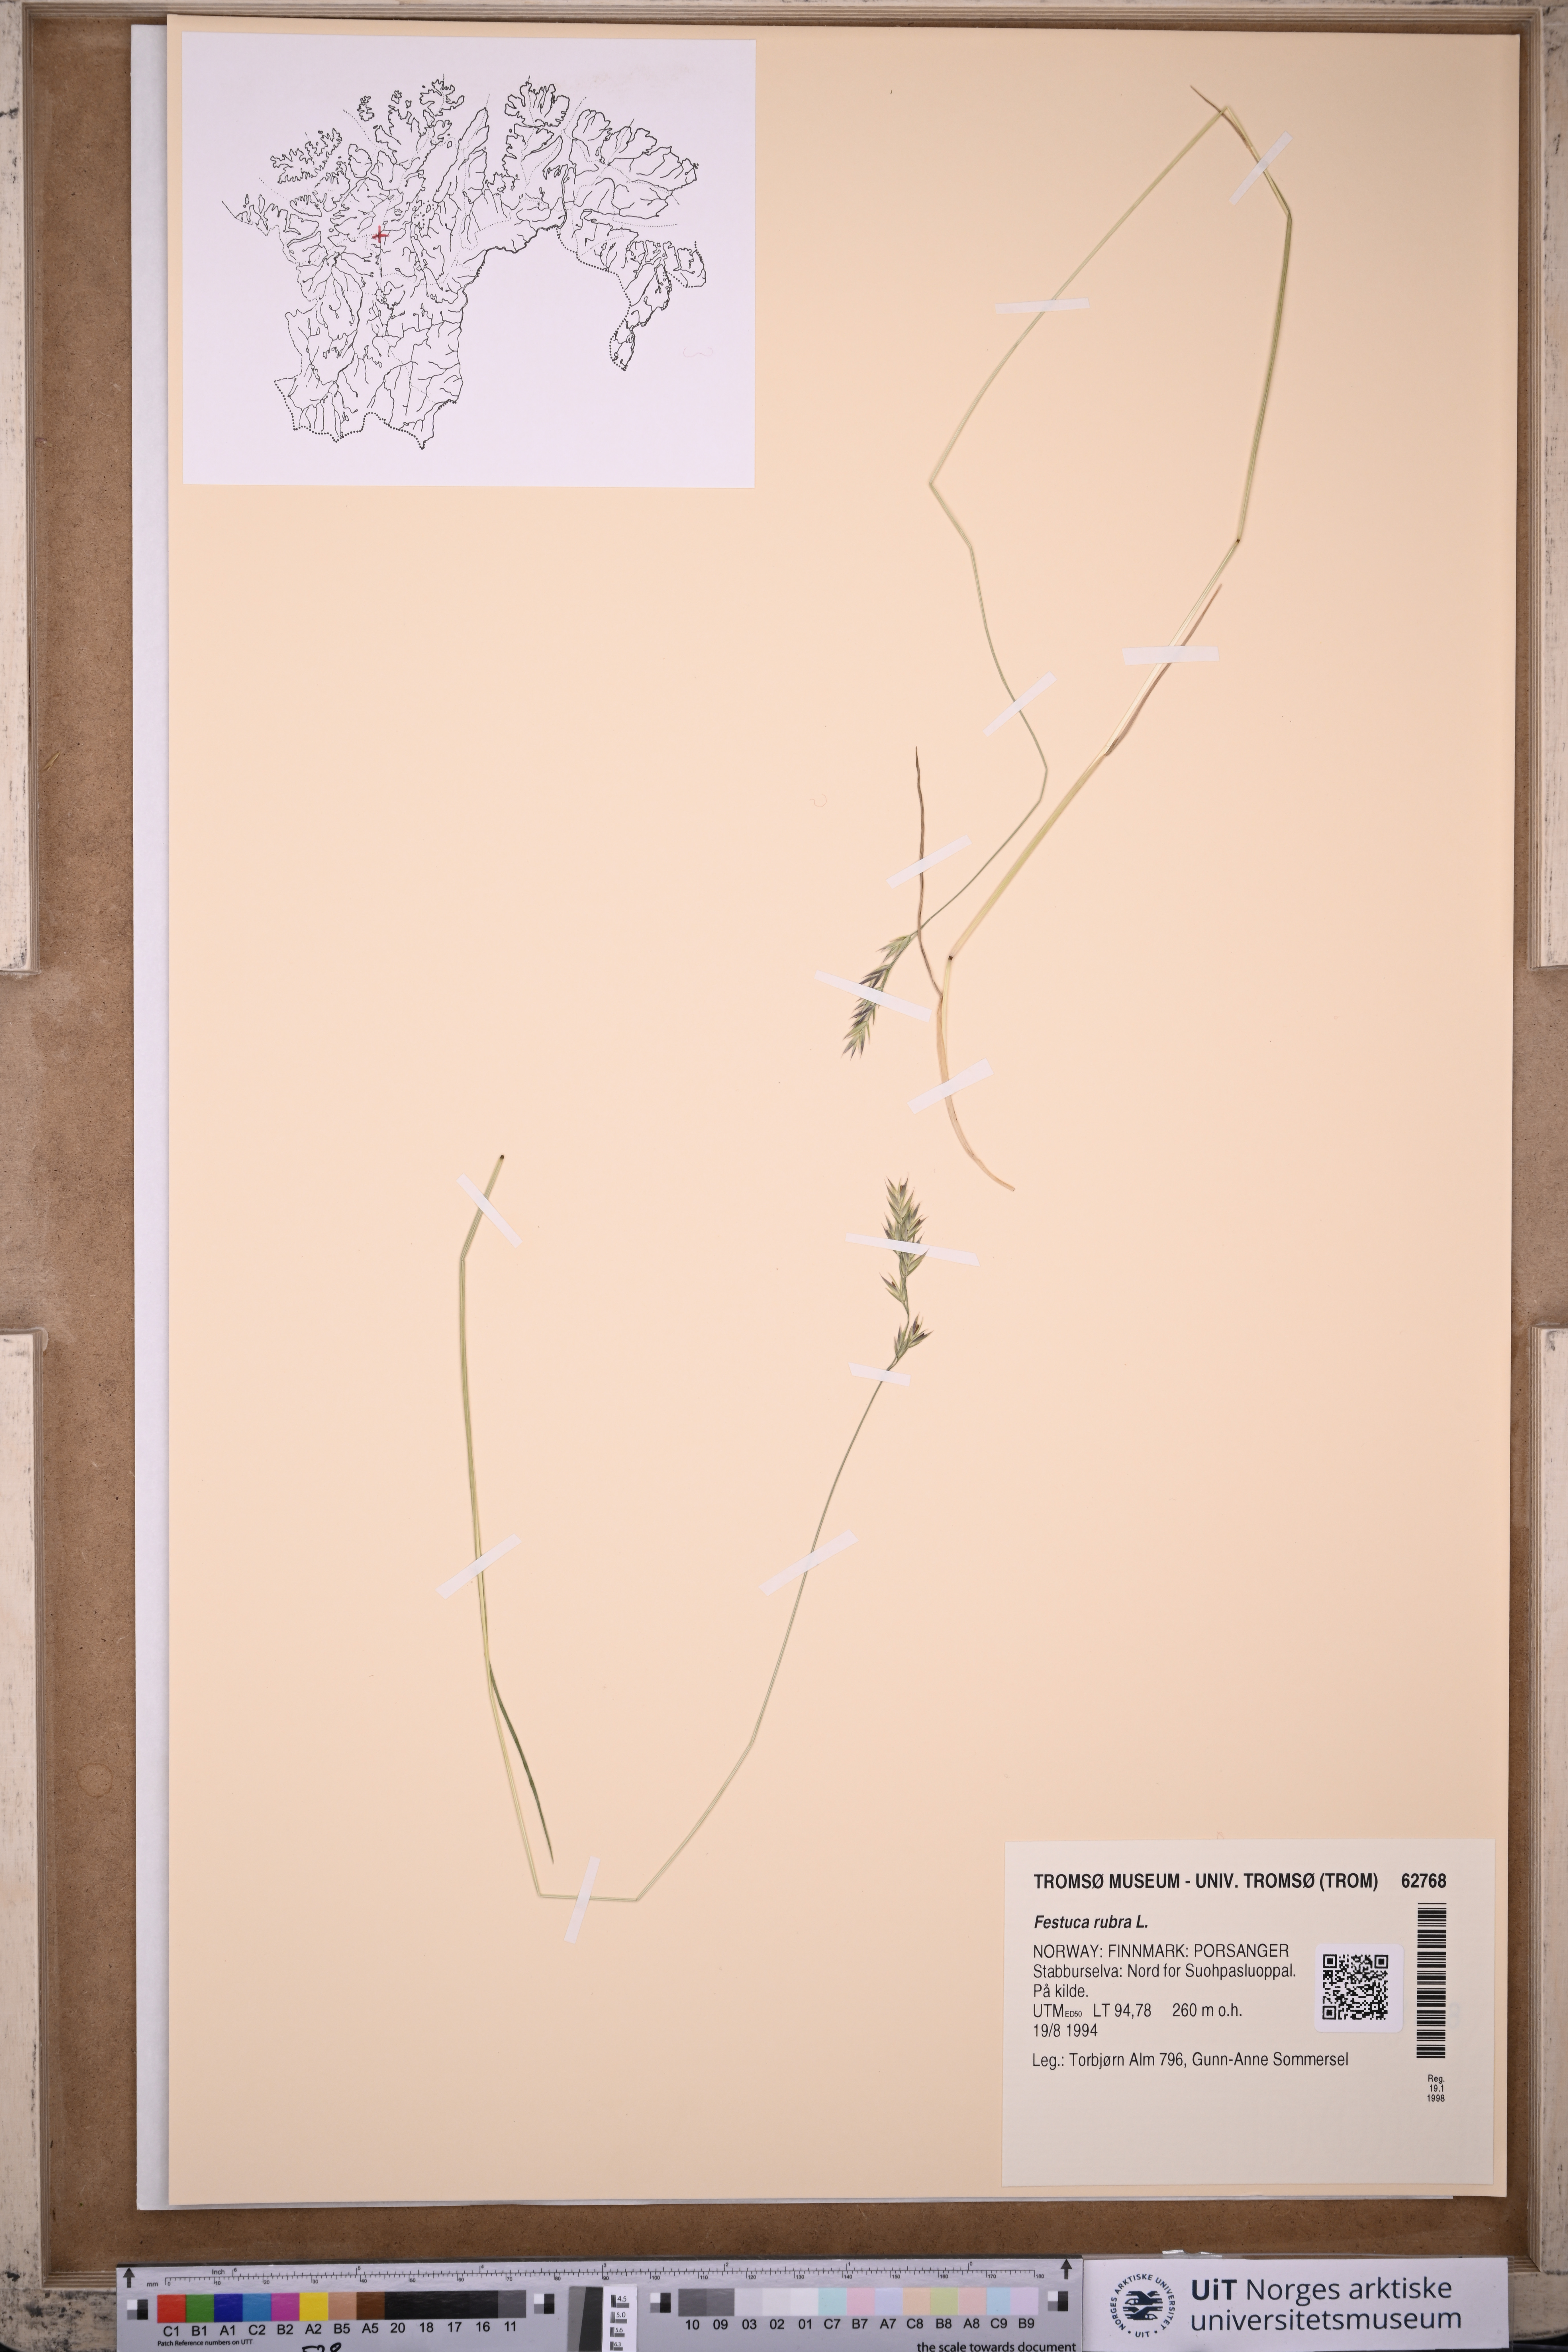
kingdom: Plantae
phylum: Tracheophyta
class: Liliopsida
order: Poales
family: Poaceae
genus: Festuca
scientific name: Festuca rubra
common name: Red fescue
